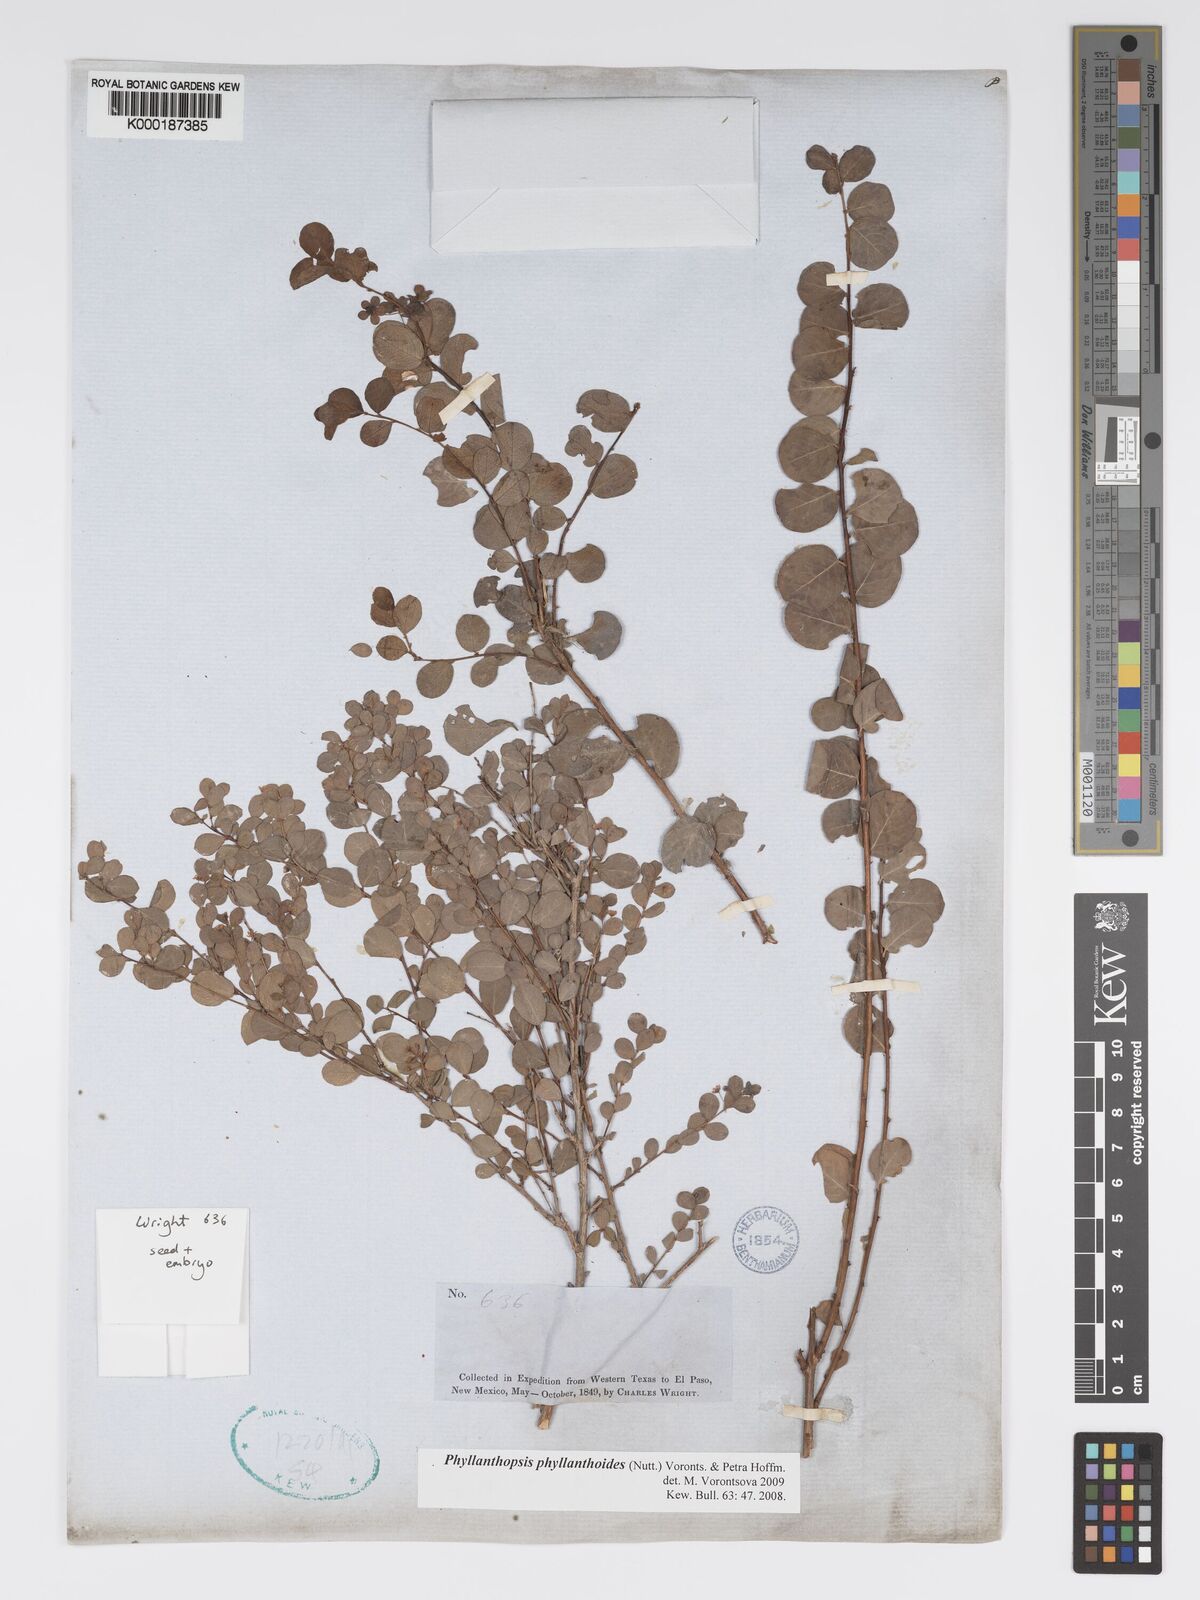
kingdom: Plantae
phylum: Tracheophyta
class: Magnoliopsida
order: Malpighiales
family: Phyllanthaceae
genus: Andrachne
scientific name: Andrachne
